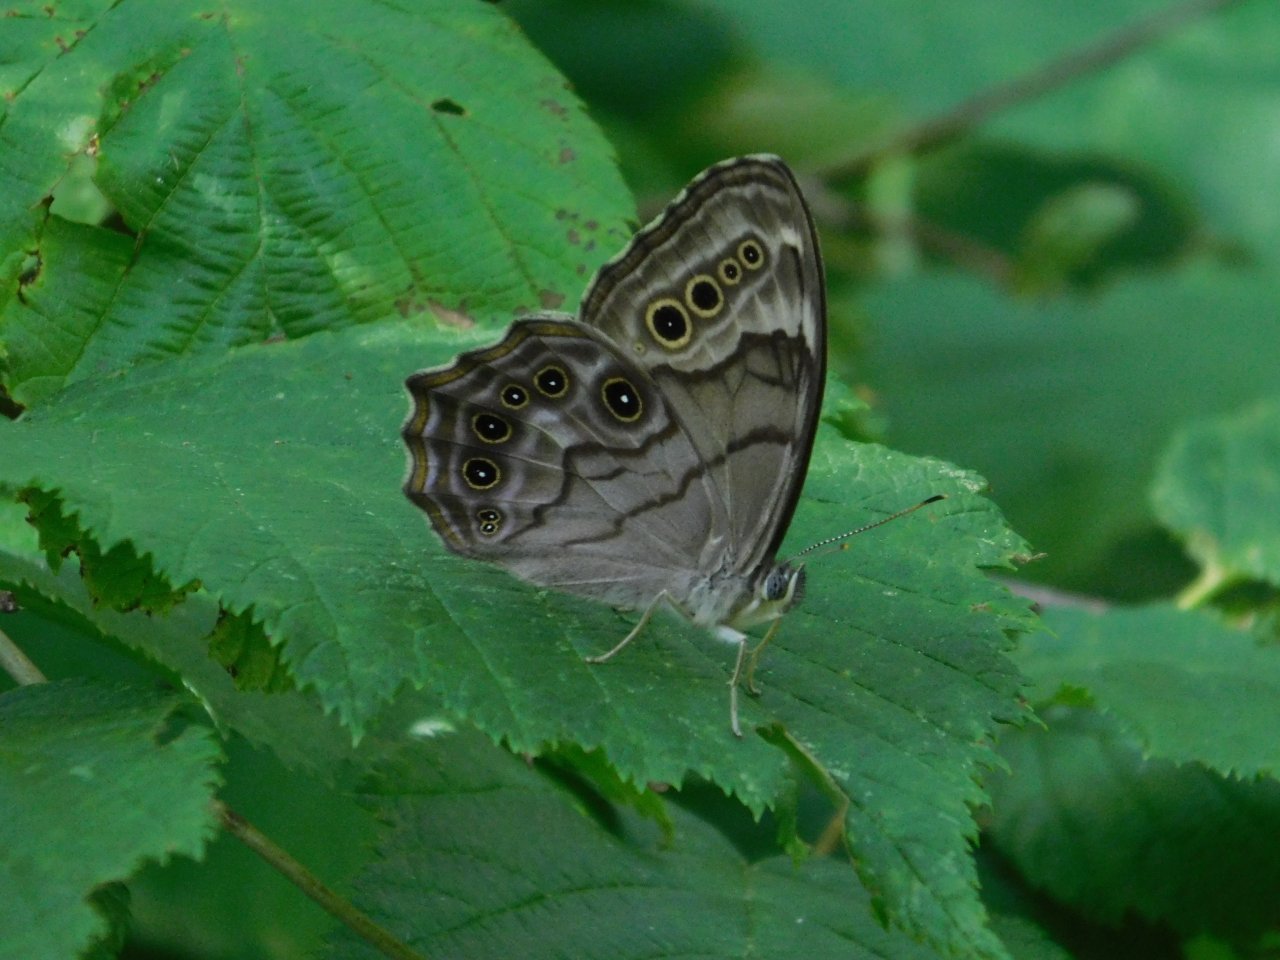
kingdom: Animalia
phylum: Arthropoda
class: Insecta
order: Lepidoptera
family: Nymphalidae
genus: Lethe
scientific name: Lethe anthedon
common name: Northern Pearly-Eye
